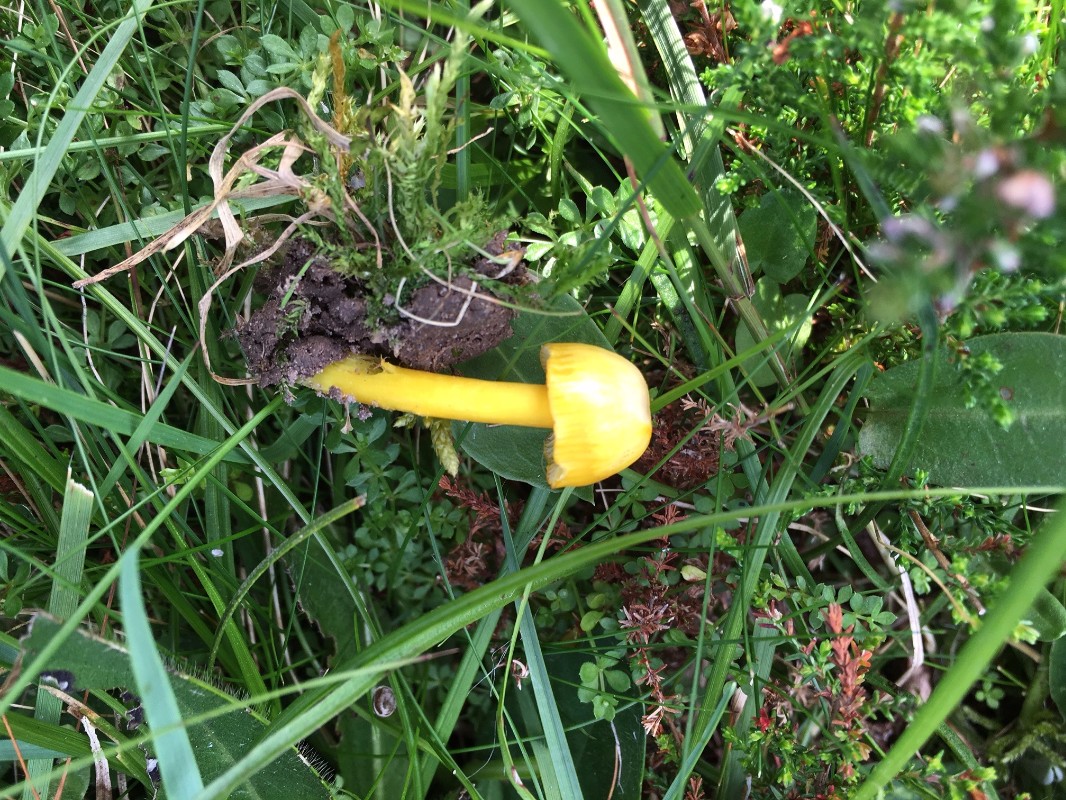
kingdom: Fungi
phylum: Basidiomycota
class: Agaricomycetes
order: Agaricales
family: Hygrophoraceae
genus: Hygrocybe
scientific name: Hygrocybe chlorophana
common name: gul vokshat
